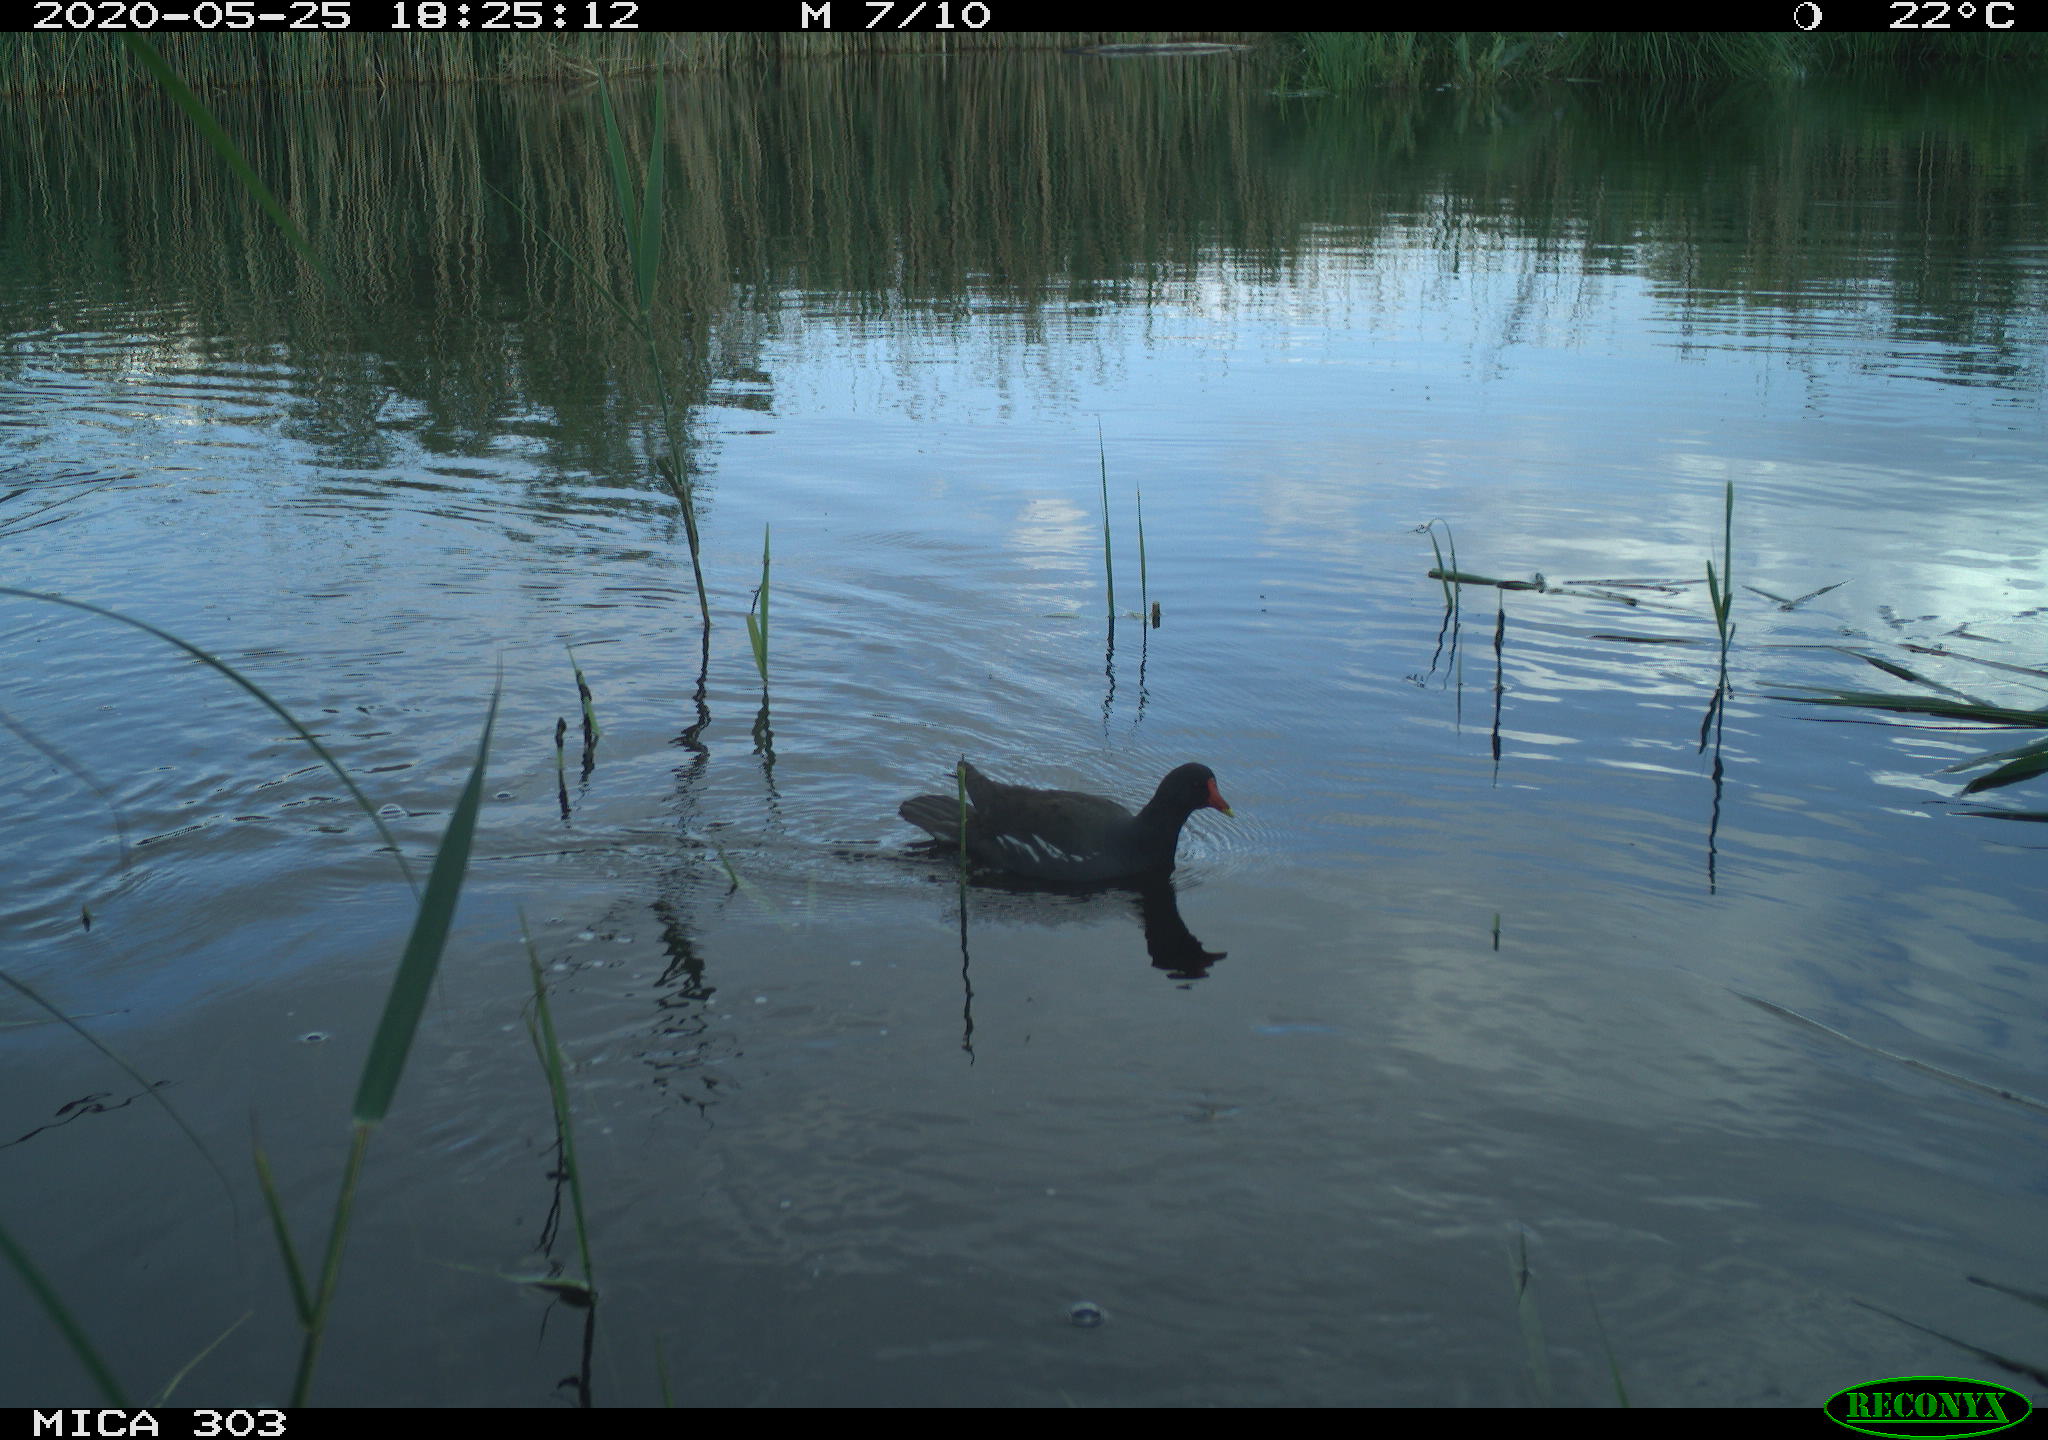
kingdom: Animalia
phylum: Chordata
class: Aves
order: Gruiformes
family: Rallidae
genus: Gallinula
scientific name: Gallinula chloropus
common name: Common moorhen
